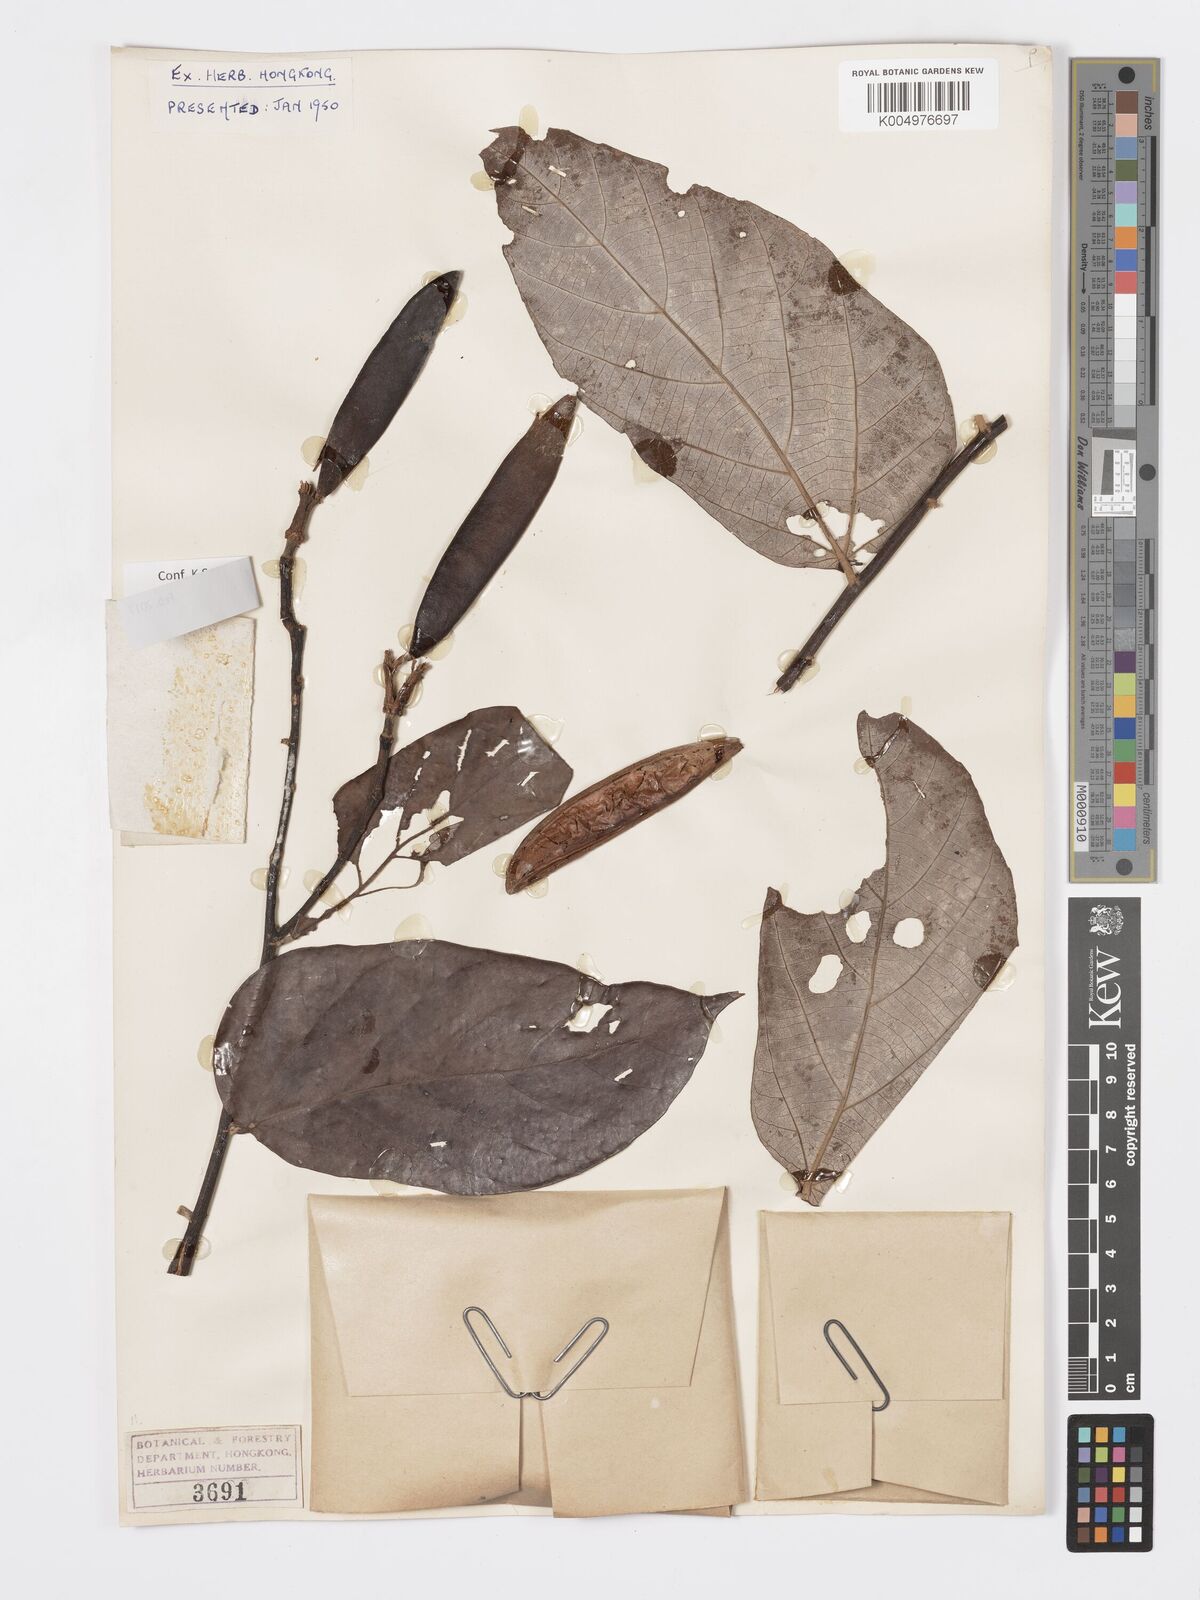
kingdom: Plantae
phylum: Tracheophyta
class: Magnoliopsida
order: Malvales
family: Malvaceae
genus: Pterospermum
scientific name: Pterospermum niveum
